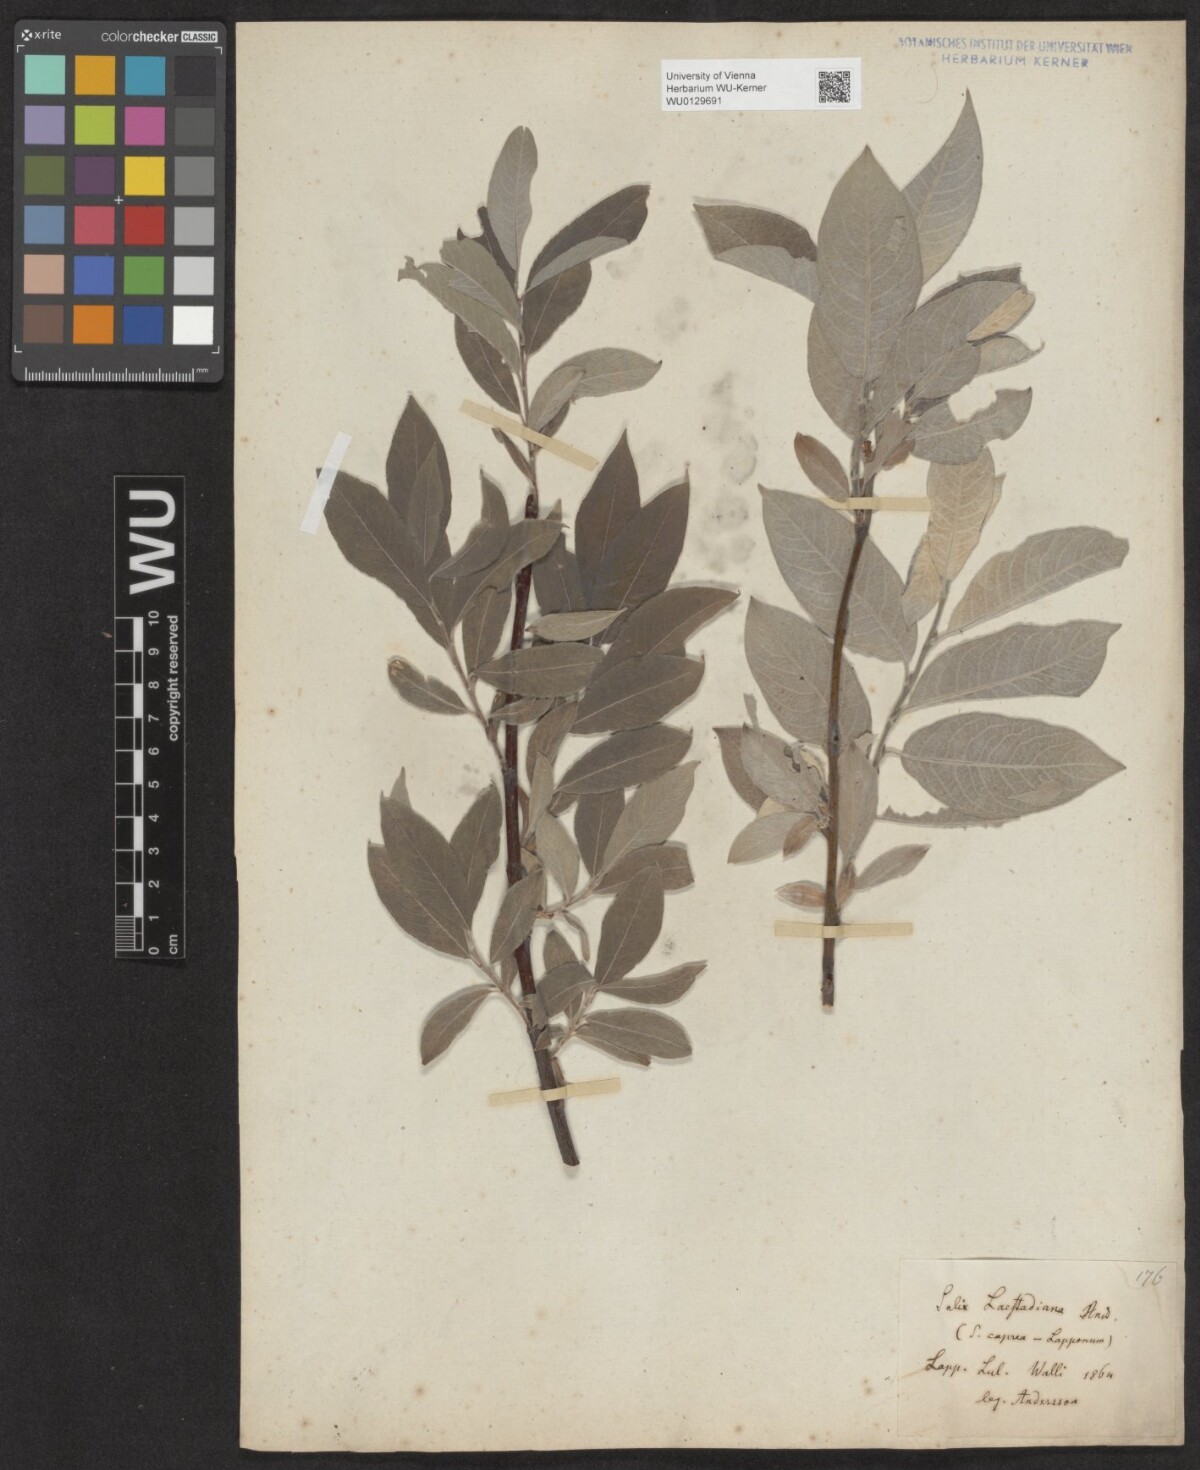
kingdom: Plantae
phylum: Tracheophyta
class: Magnoliopsida
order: Malpighiales
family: Salicaceae
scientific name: Salicaceae
